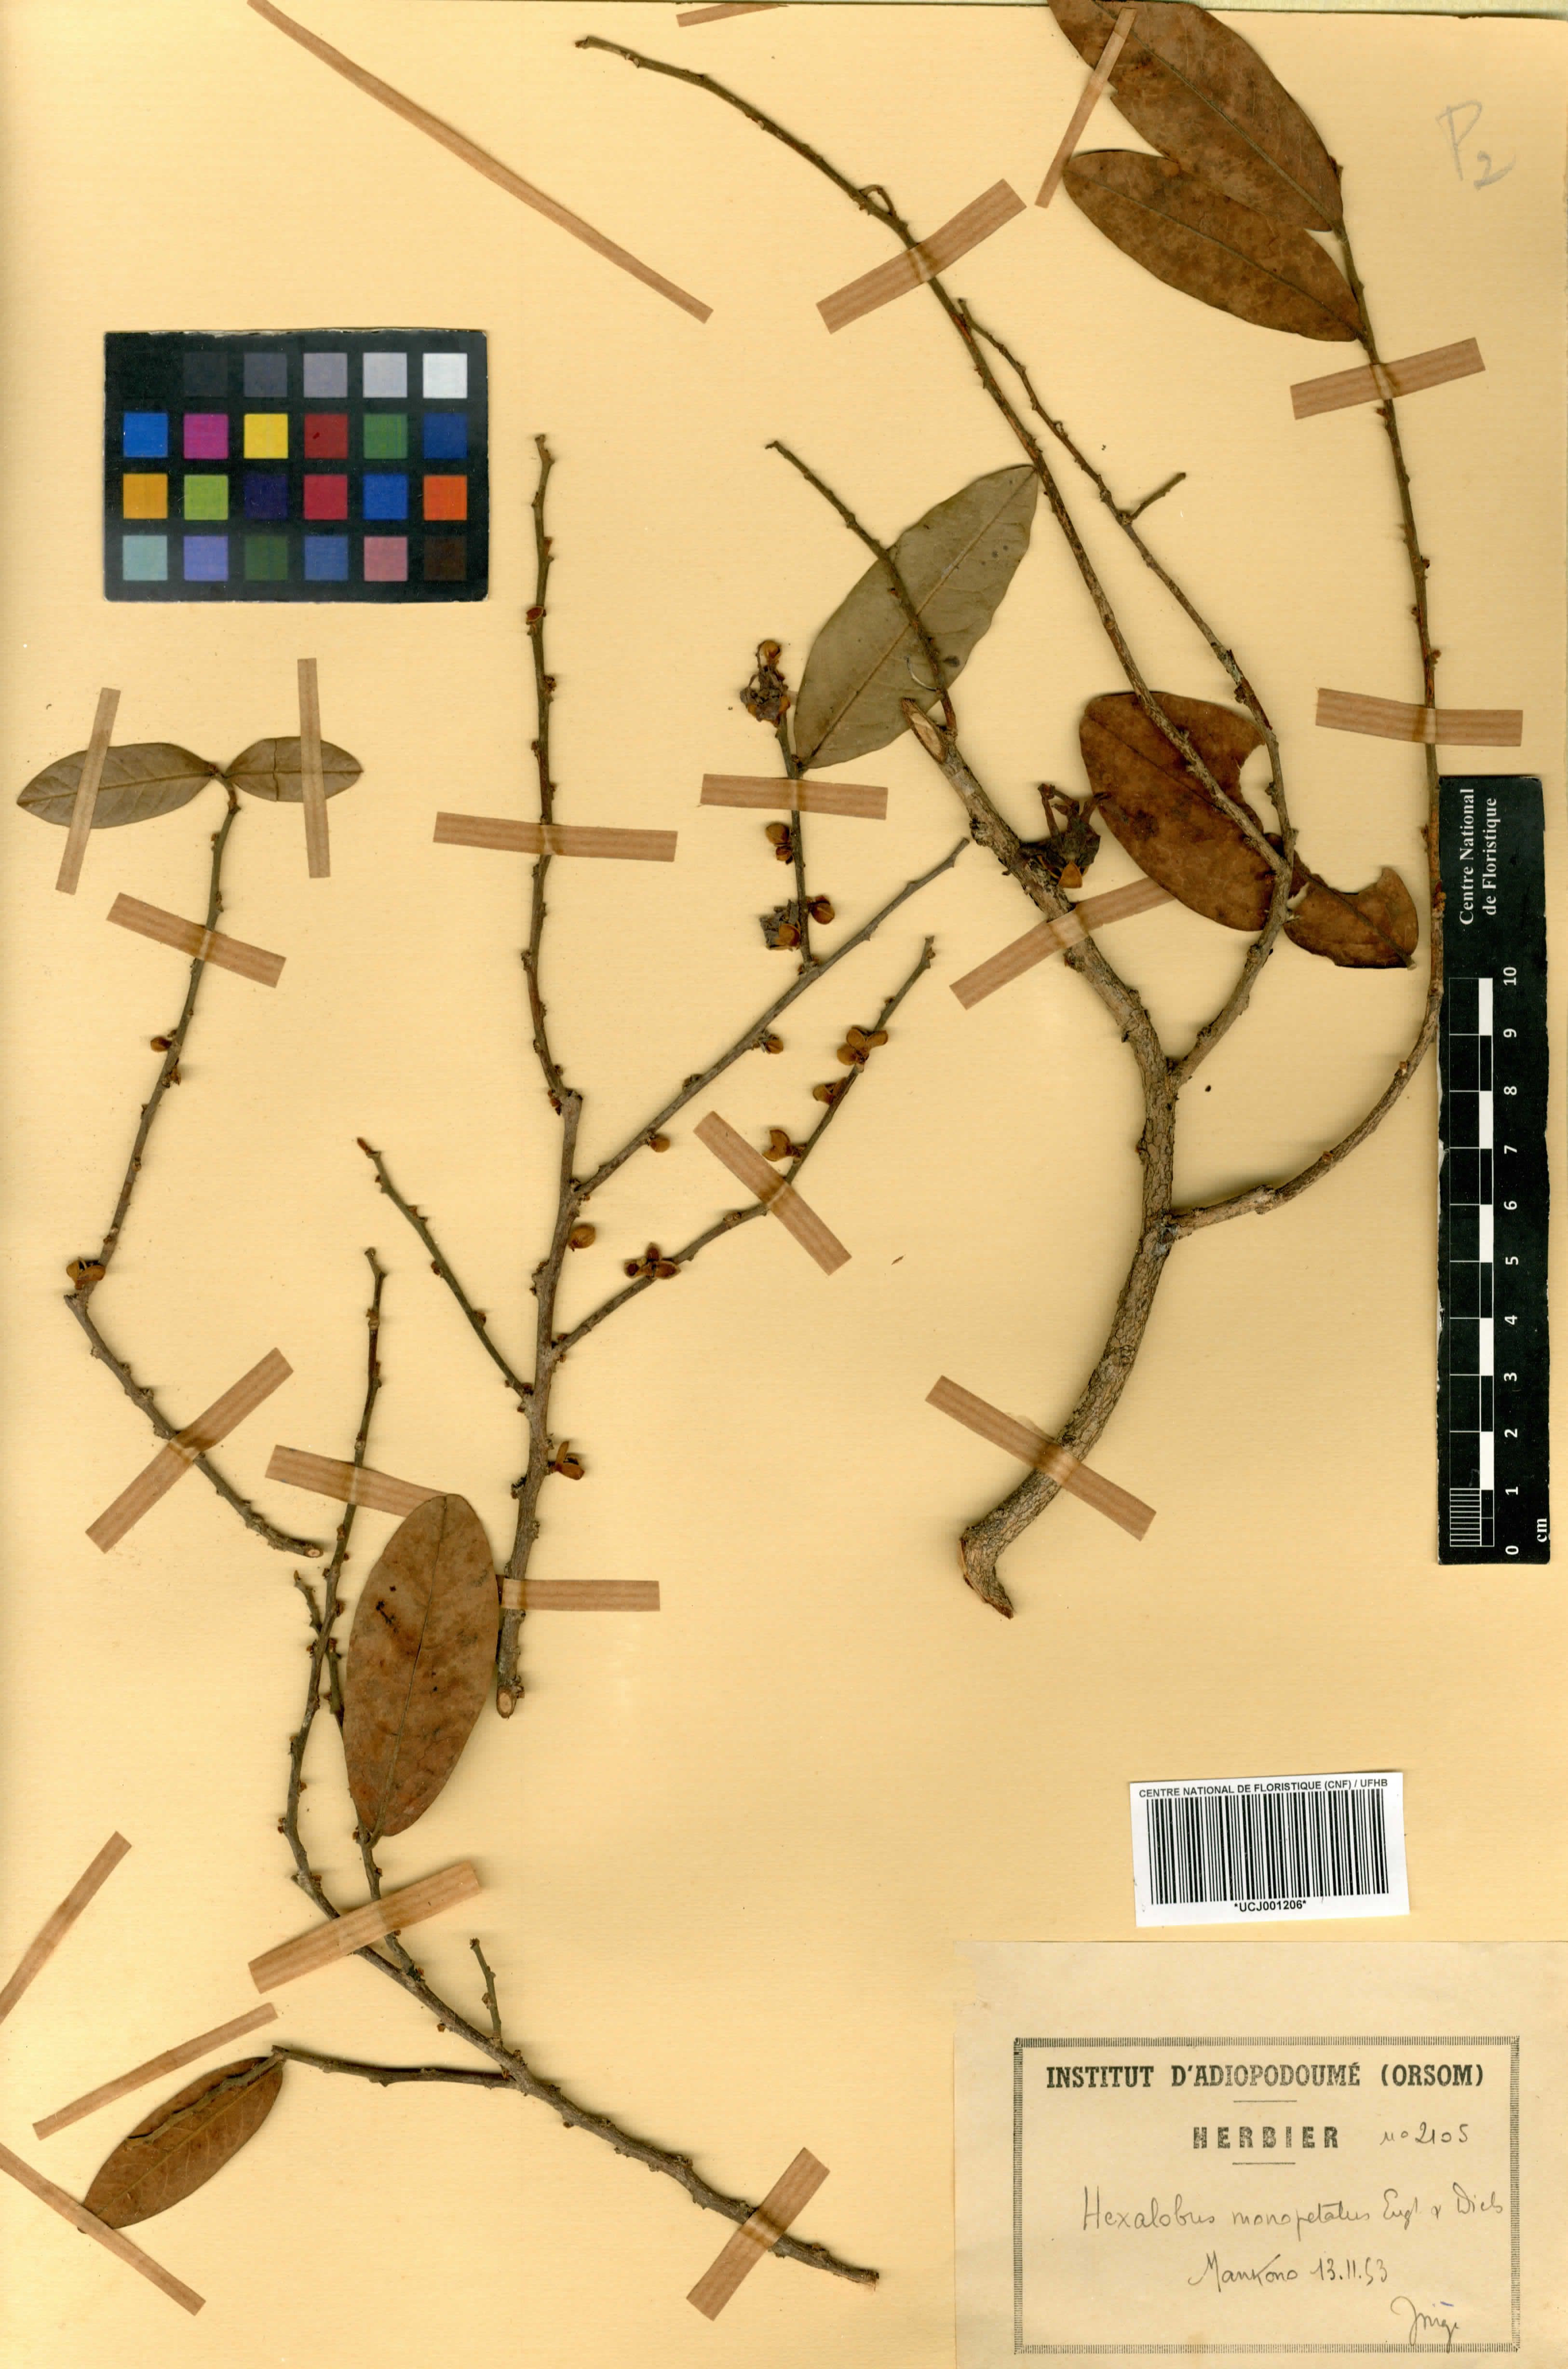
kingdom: Plantae
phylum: Tracheophyta
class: Magnoliopsida
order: Magnoliales
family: Annonaceae
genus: Hexalobus
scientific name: Hexalobus monopetalus
